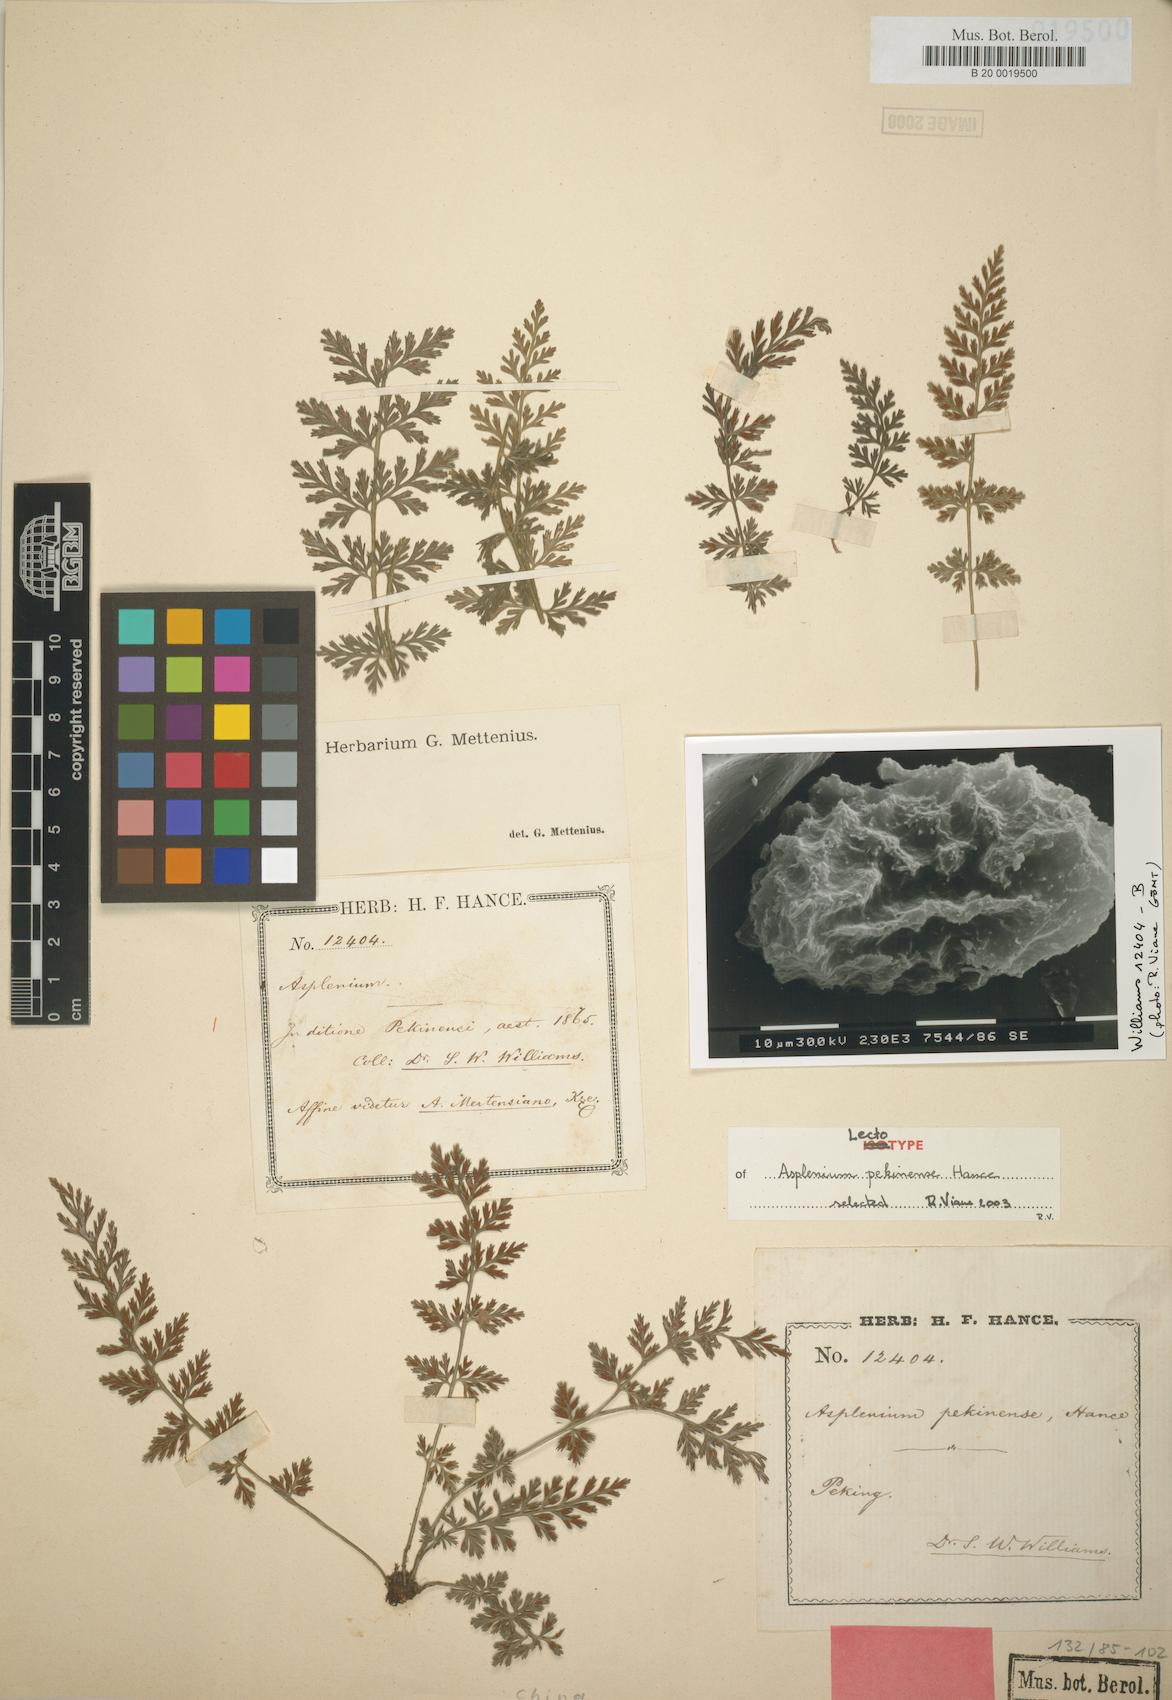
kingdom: Plantae
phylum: Tracheophyta
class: Polypodiopsida
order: Polypodiales
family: Aspleniaceae
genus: Asplenium
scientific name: Asplenium sarelii
